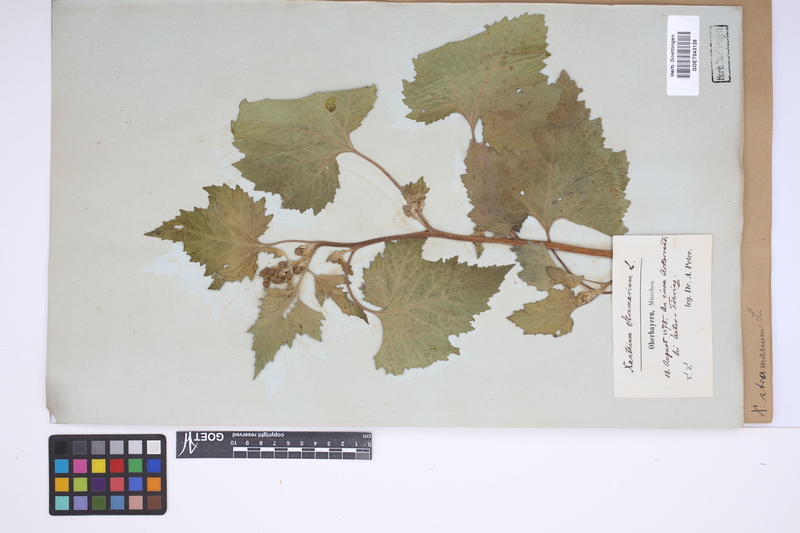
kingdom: Plantae
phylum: Tracheophyta
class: Magnoliopsida
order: Asterales
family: Asteraceae
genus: Xanthium
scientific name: Xanthium strumarium
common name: Rough cocklebur
